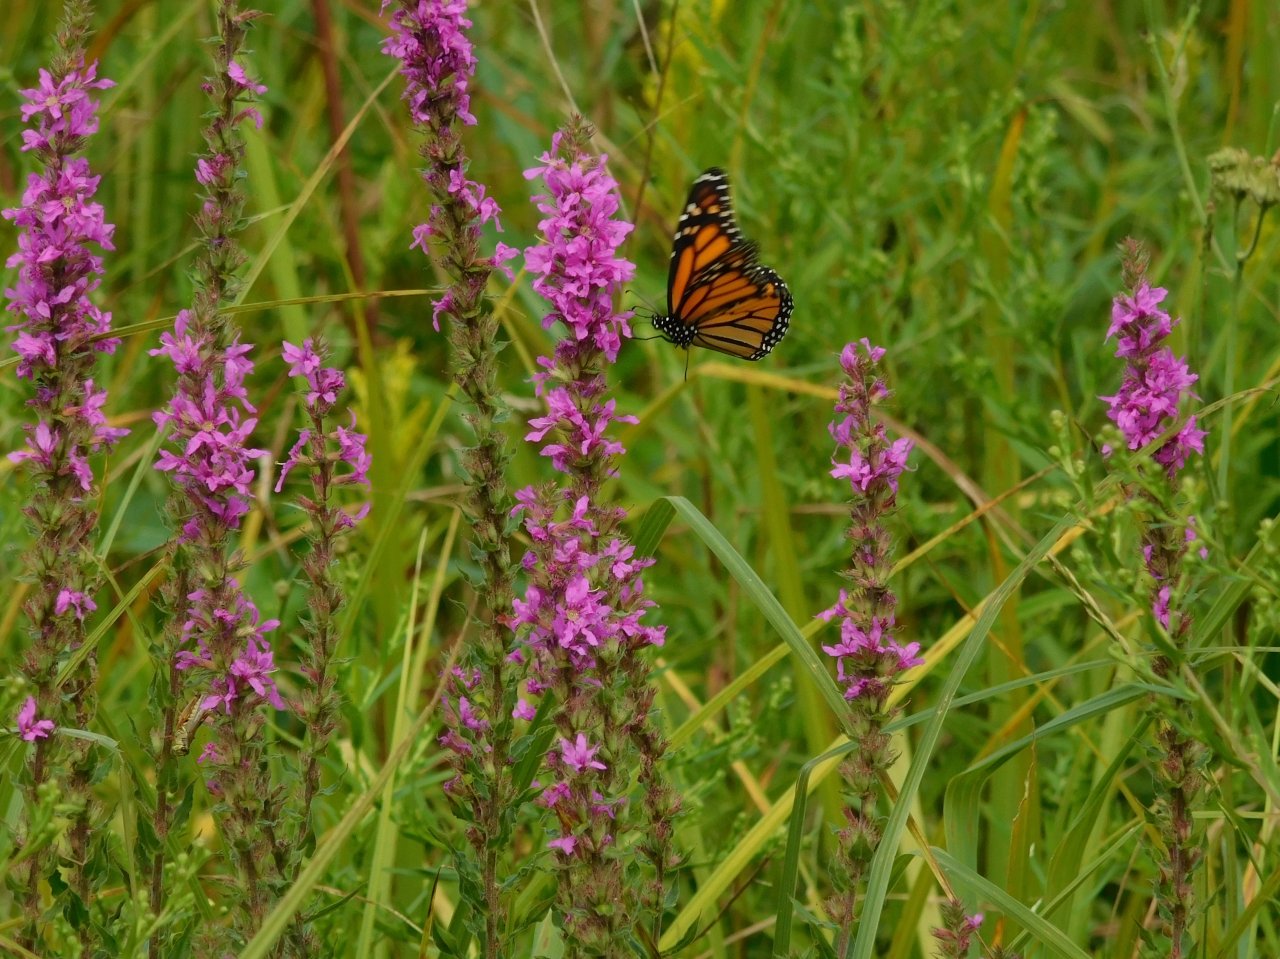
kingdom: Animalia
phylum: Arthropoda
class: Insecta
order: Lepidoptera
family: Nymphalidae
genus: Danaus
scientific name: Danaus plexippus
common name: Monarch
